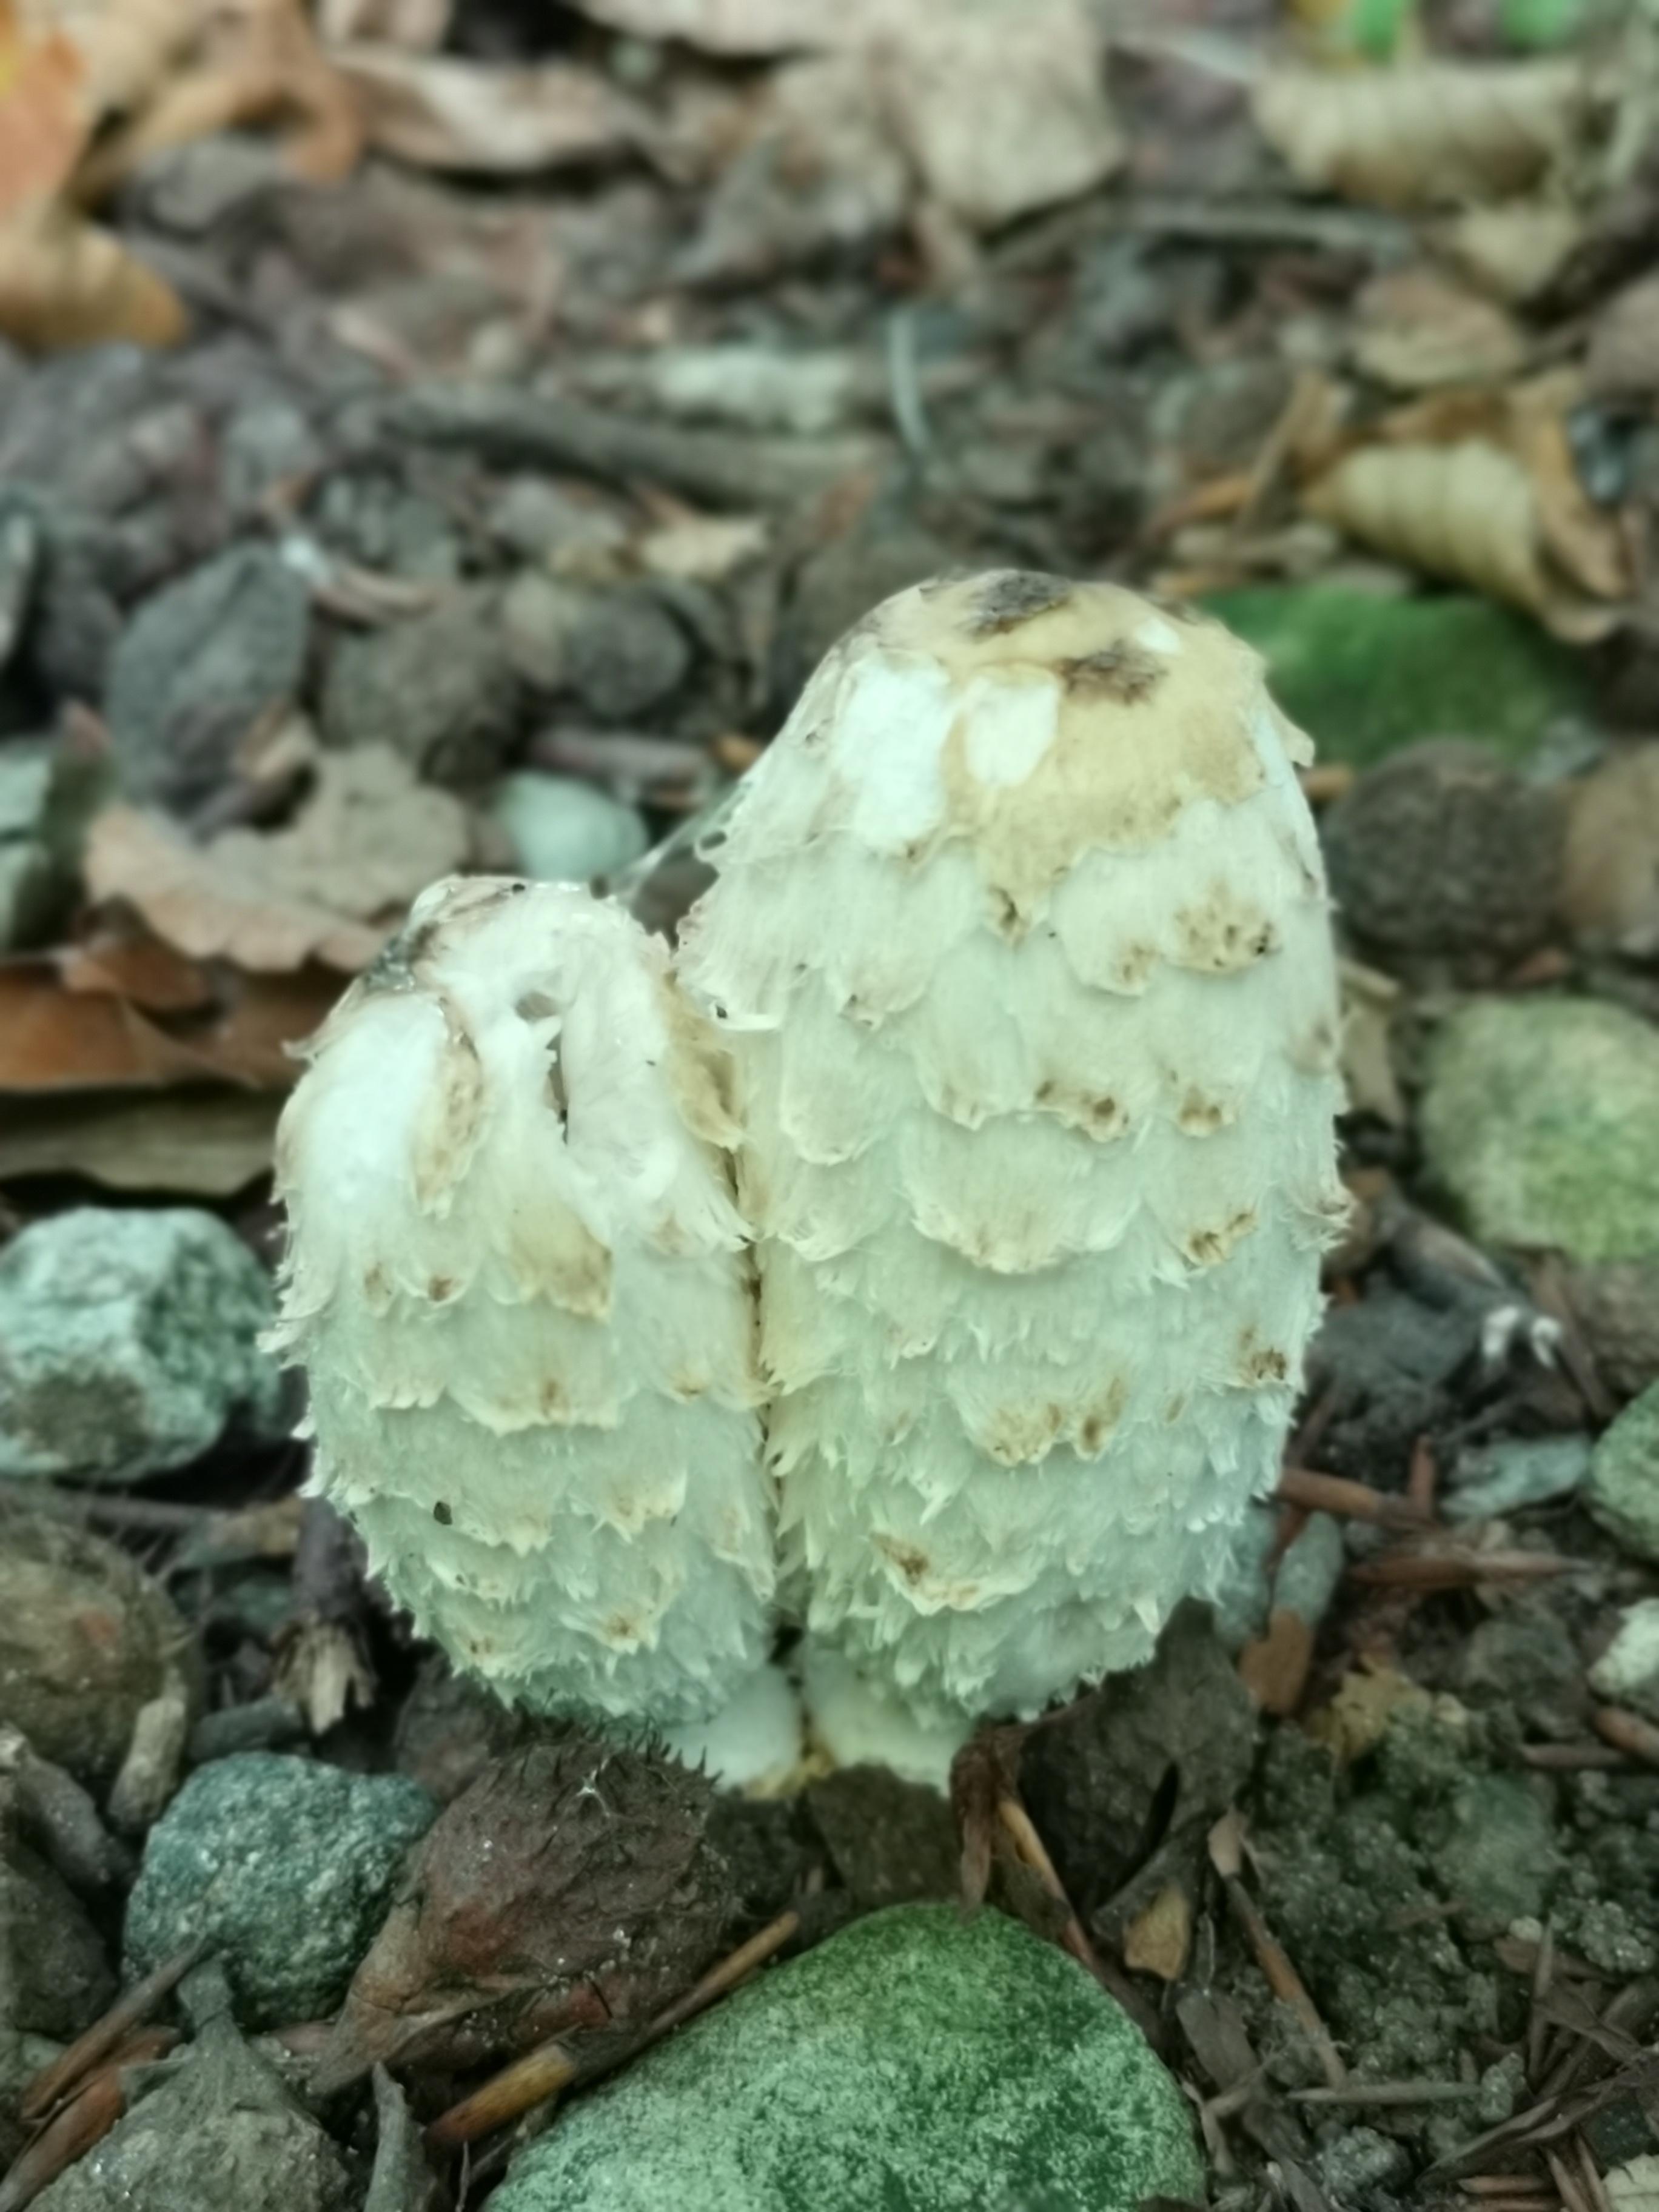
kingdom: Fungi
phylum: Basidiomycota
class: Agaricomycetes
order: Agaricales
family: Agaricaceae
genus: Coprinus
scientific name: Coprinus comatus
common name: stor parykhat
